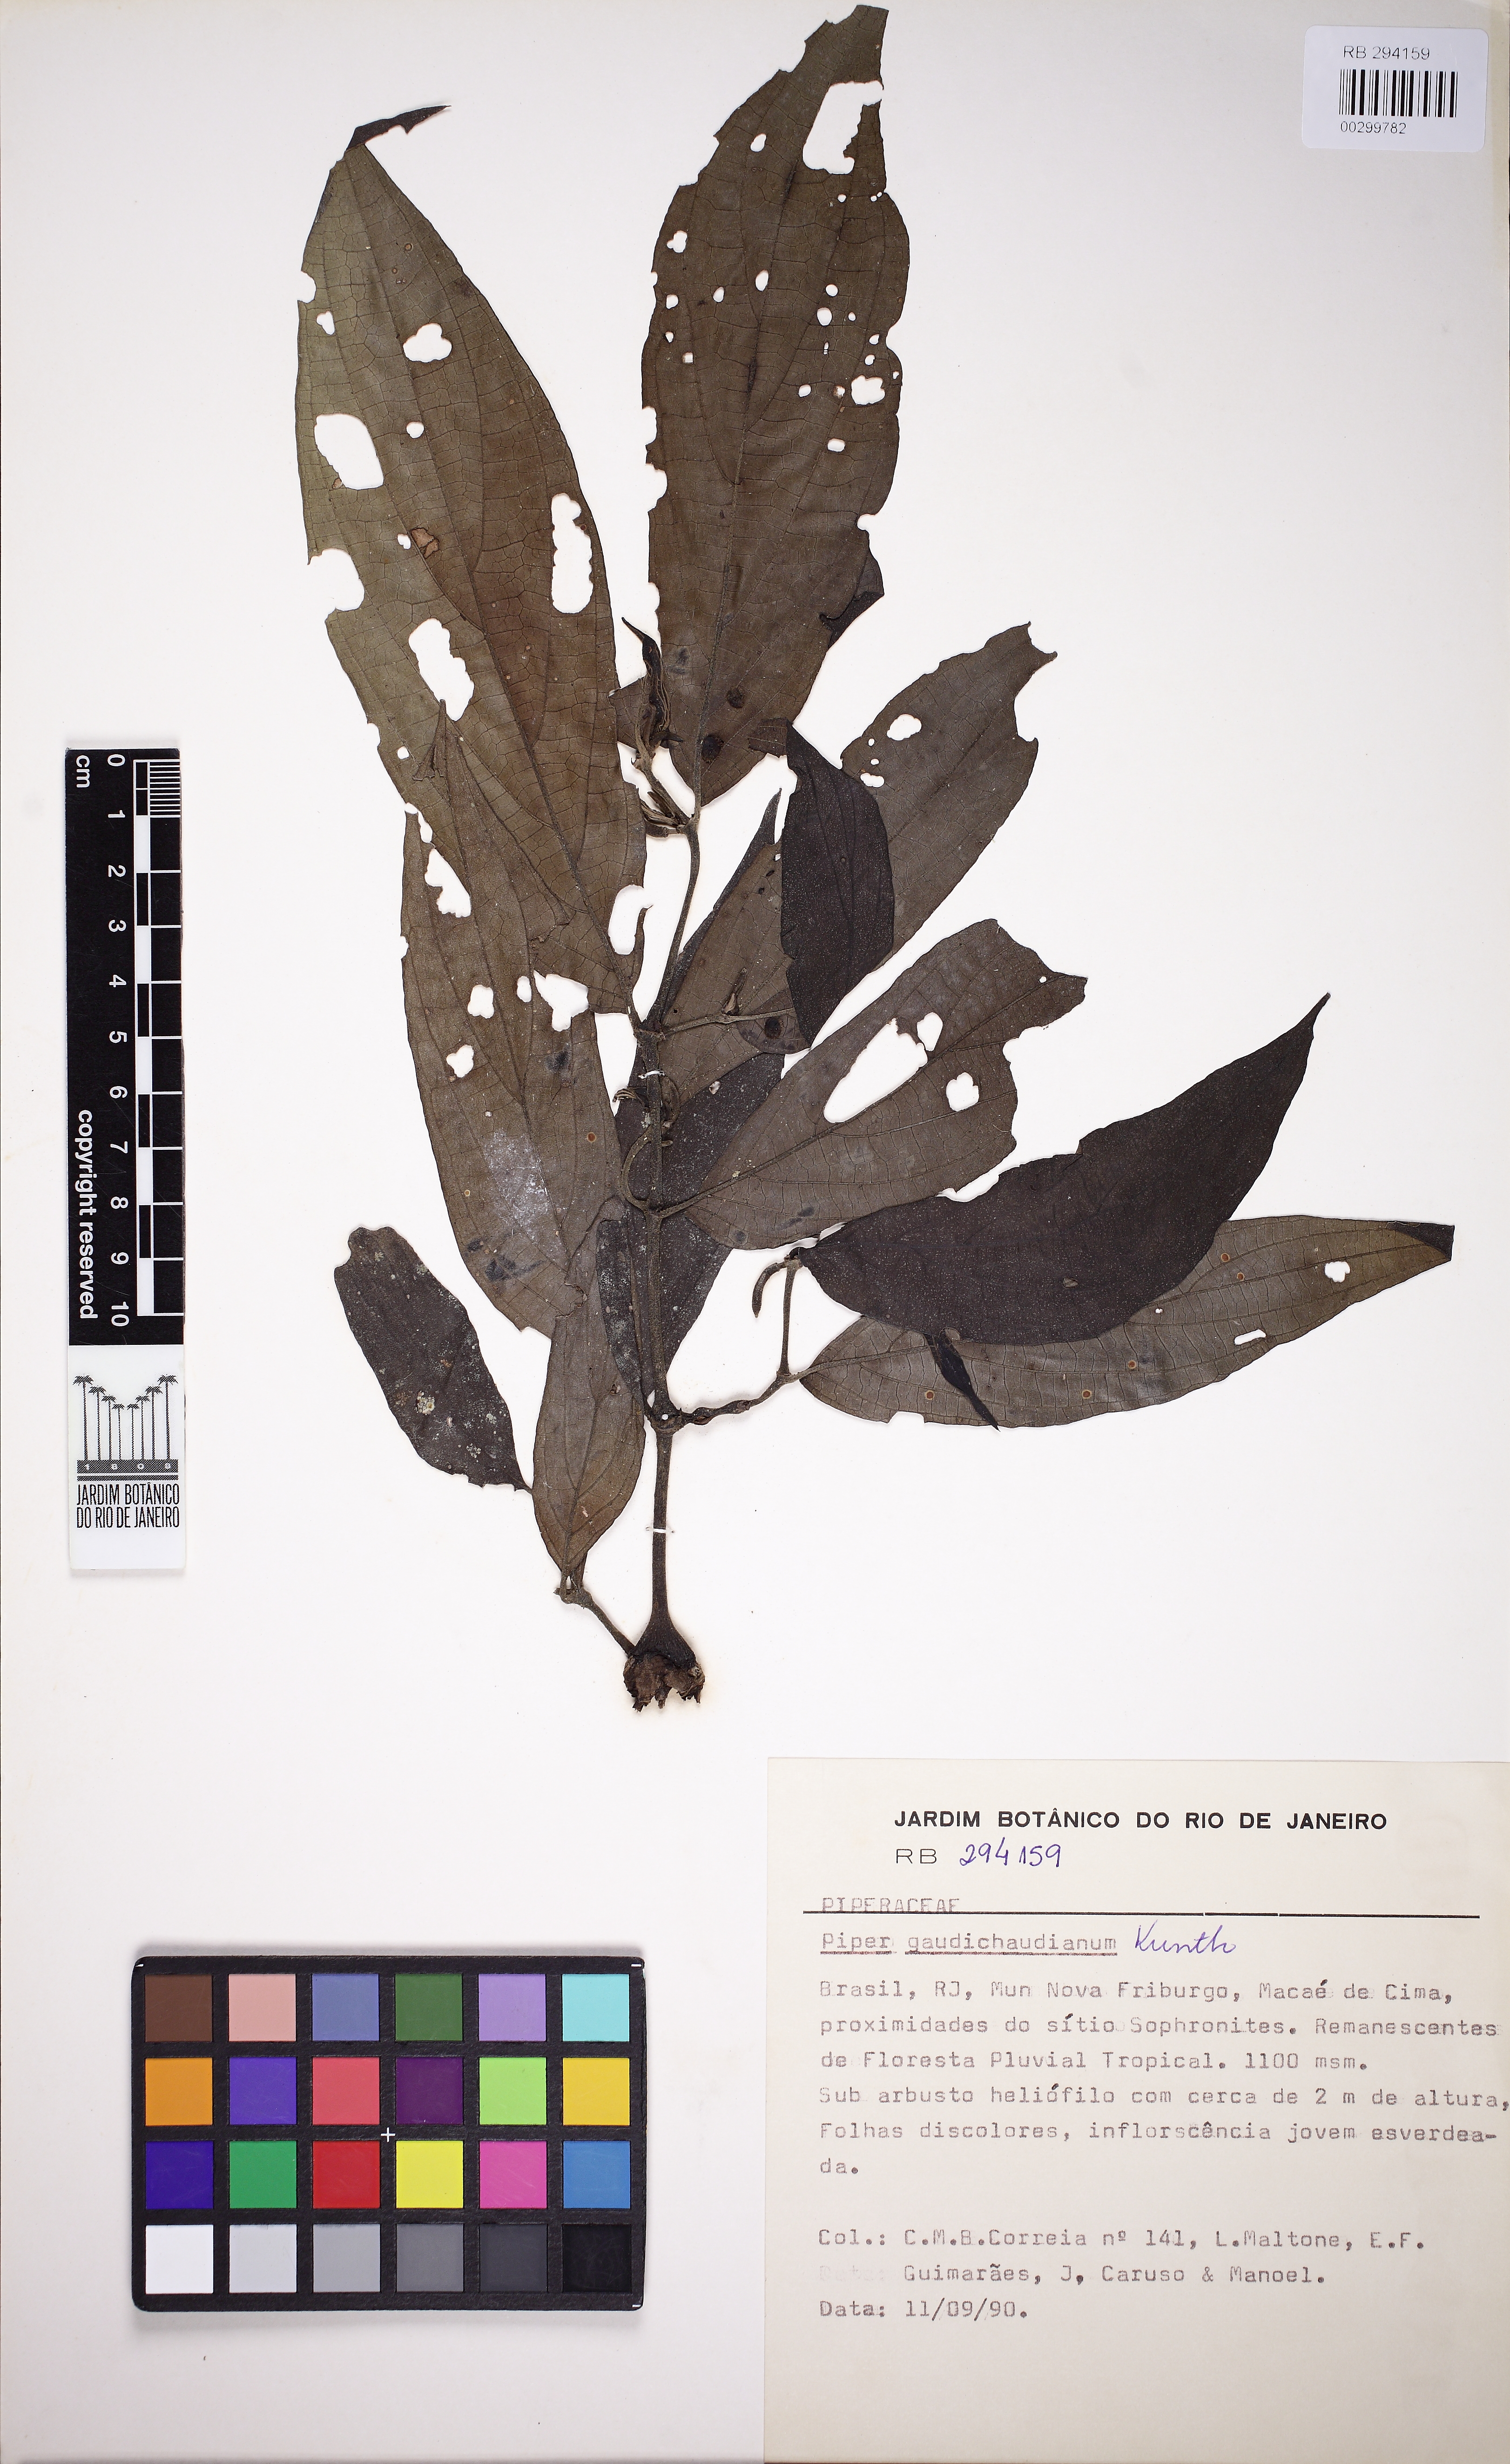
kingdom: Plantae
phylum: Tracheophyta
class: Magnoliopsida
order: Piperales
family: Piperaceae
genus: Piper
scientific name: Piper gaudichaudianum
